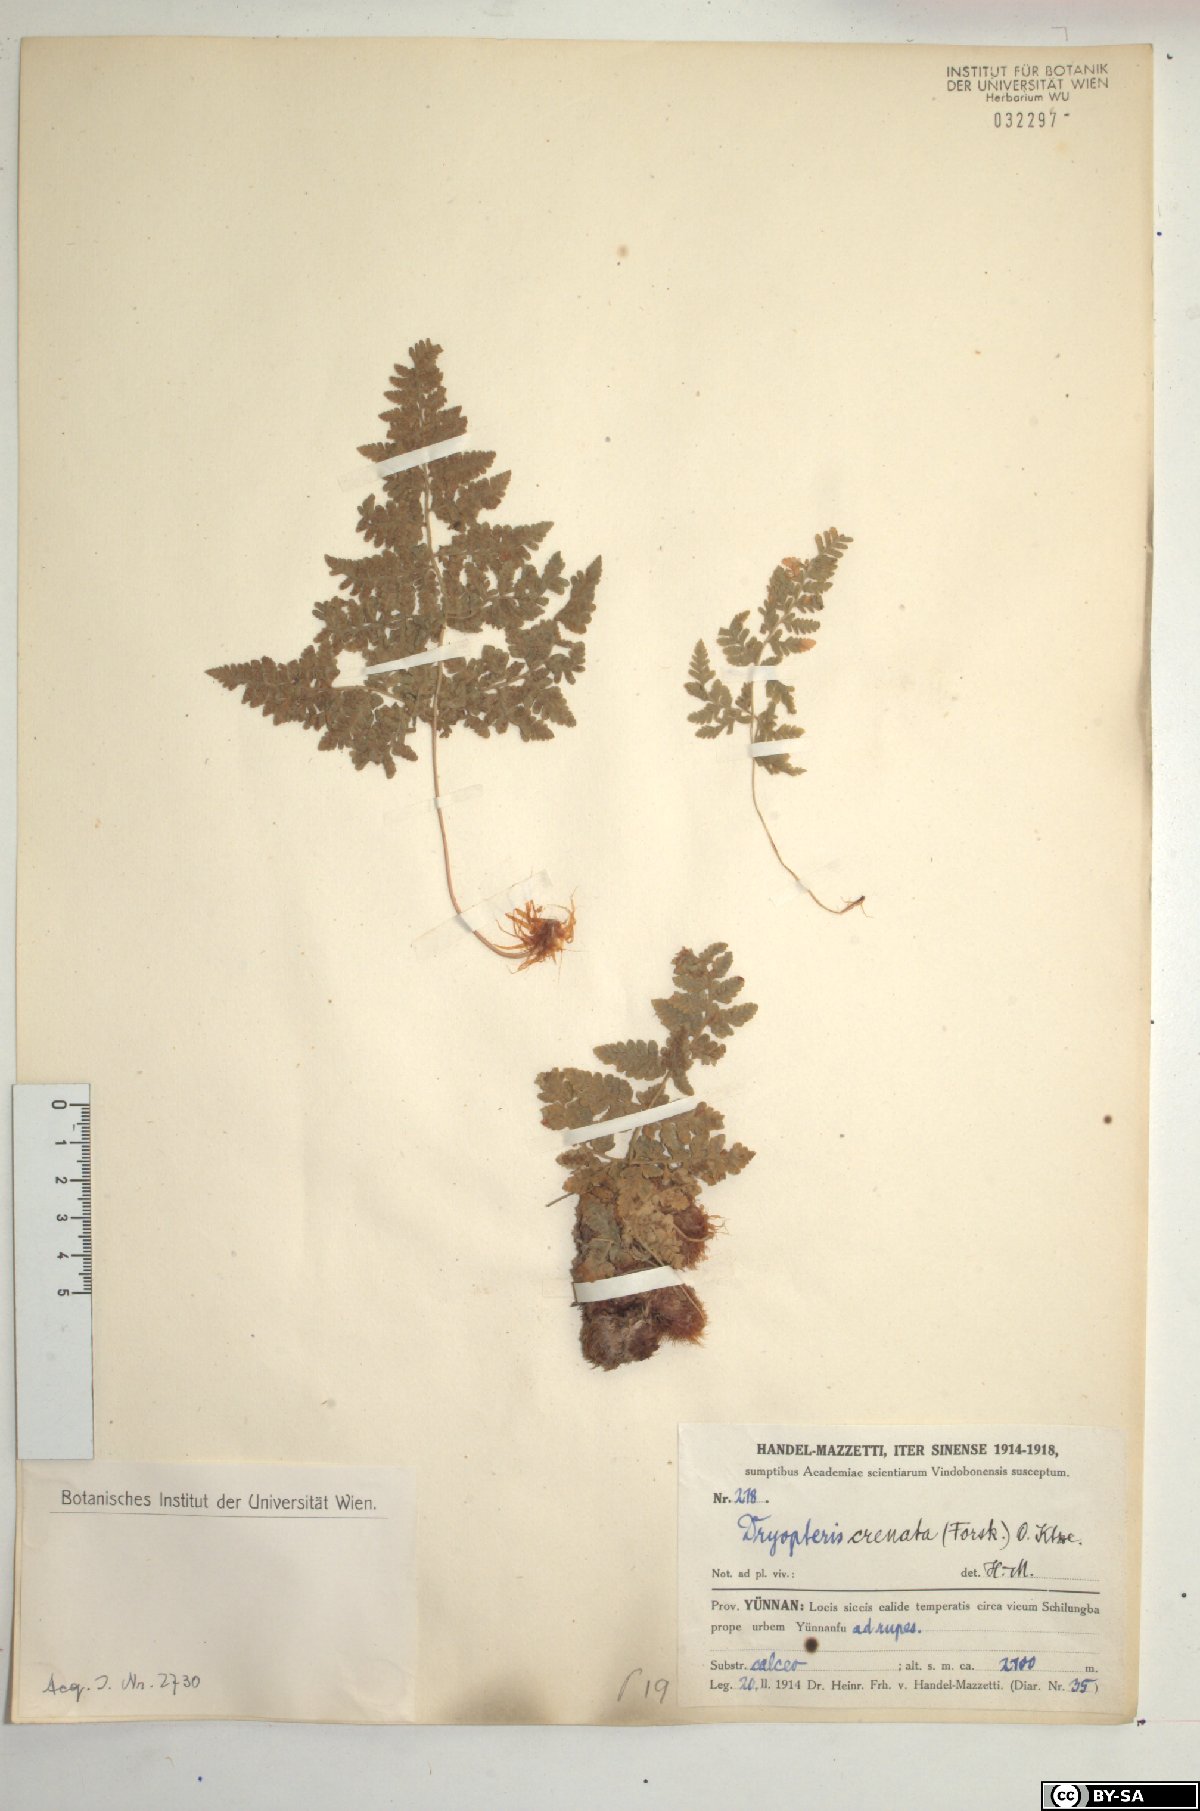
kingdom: Plantae
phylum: Tracheophyta
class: Polypodiopsida
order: Polypodiales
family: Hypodematiaceae
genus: Hypodematium
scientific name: Hypodematium chrysolepis
